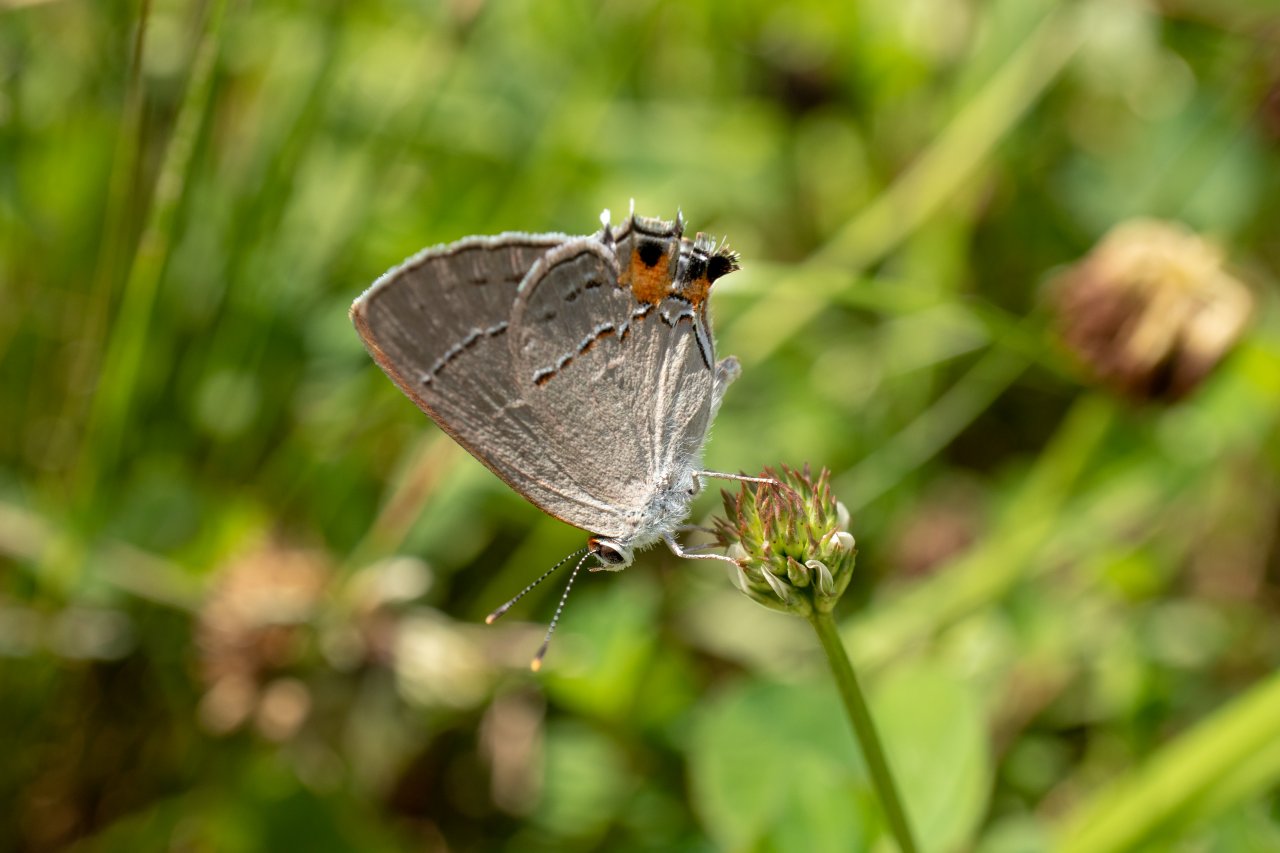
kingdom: Animalia
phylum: Arthropoda
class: Insecta
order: Lepidoptera
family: Lycaenidae
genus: Strymon
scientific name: Strymon melinus
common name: Gray Hairstreak
